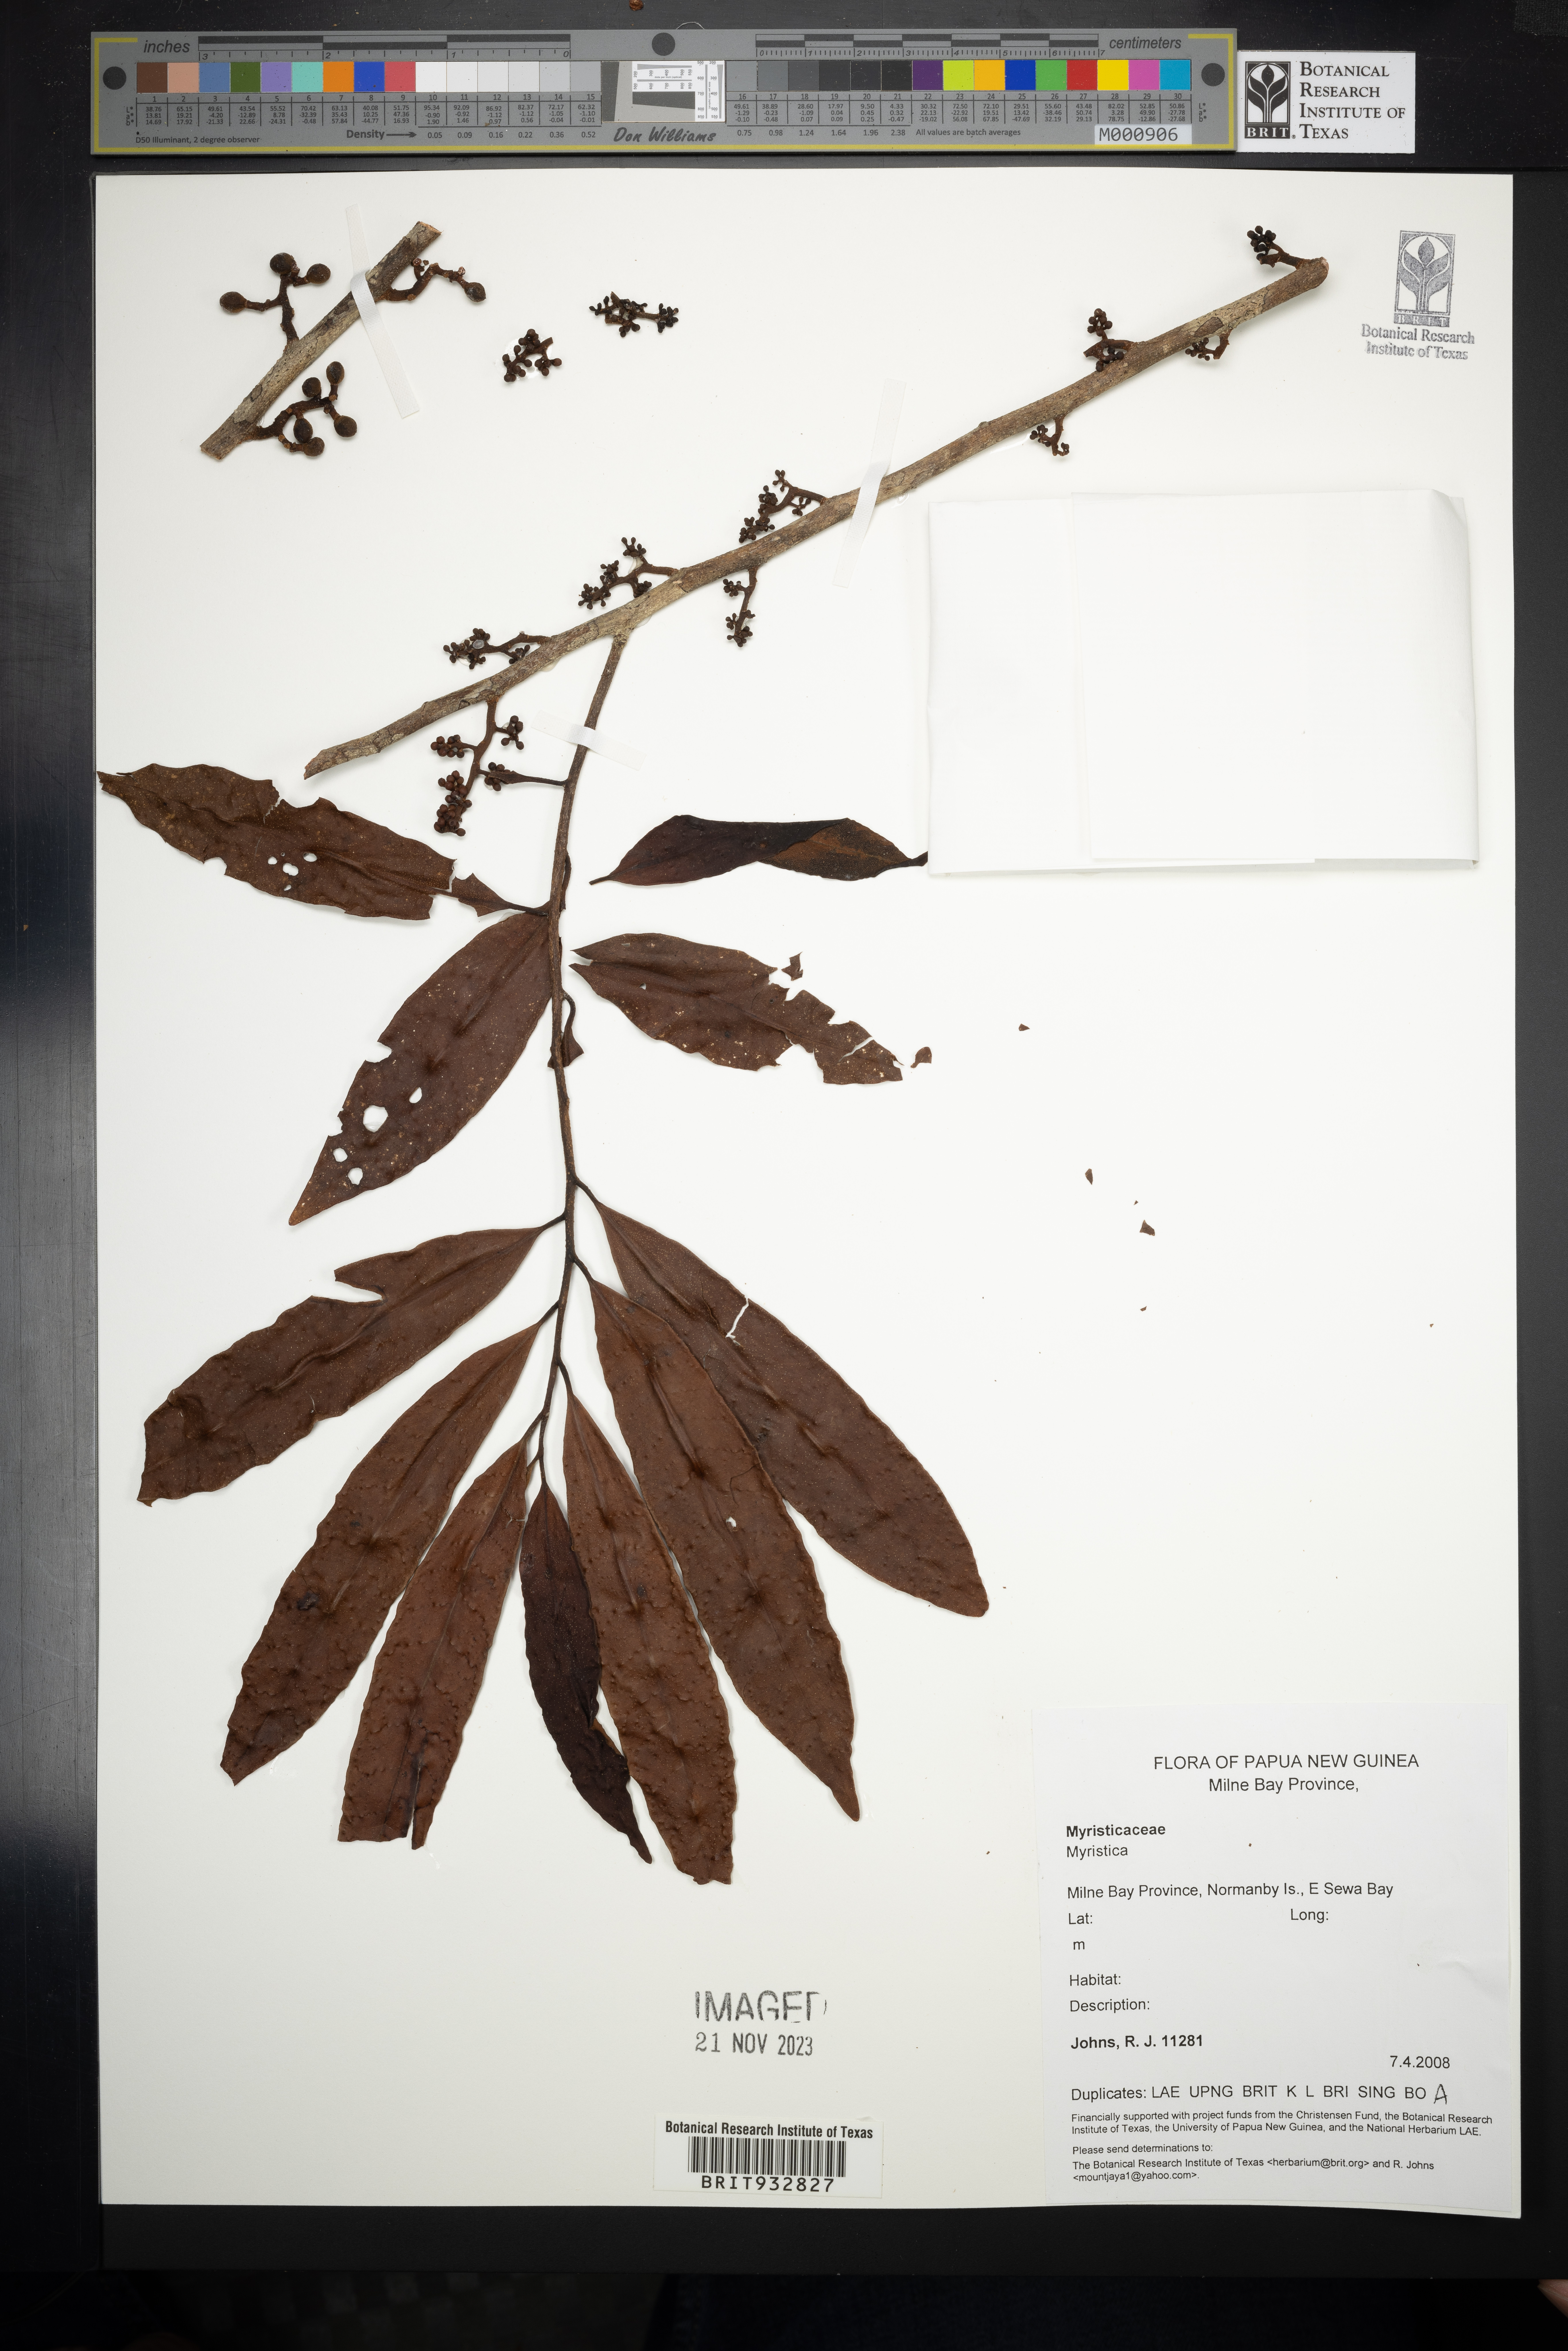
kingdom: Plantae
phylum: Tracheophyta
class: Magnoliopsida
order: Magnoliales
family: Myristicaceae
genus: Myristica
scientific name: Myristica
